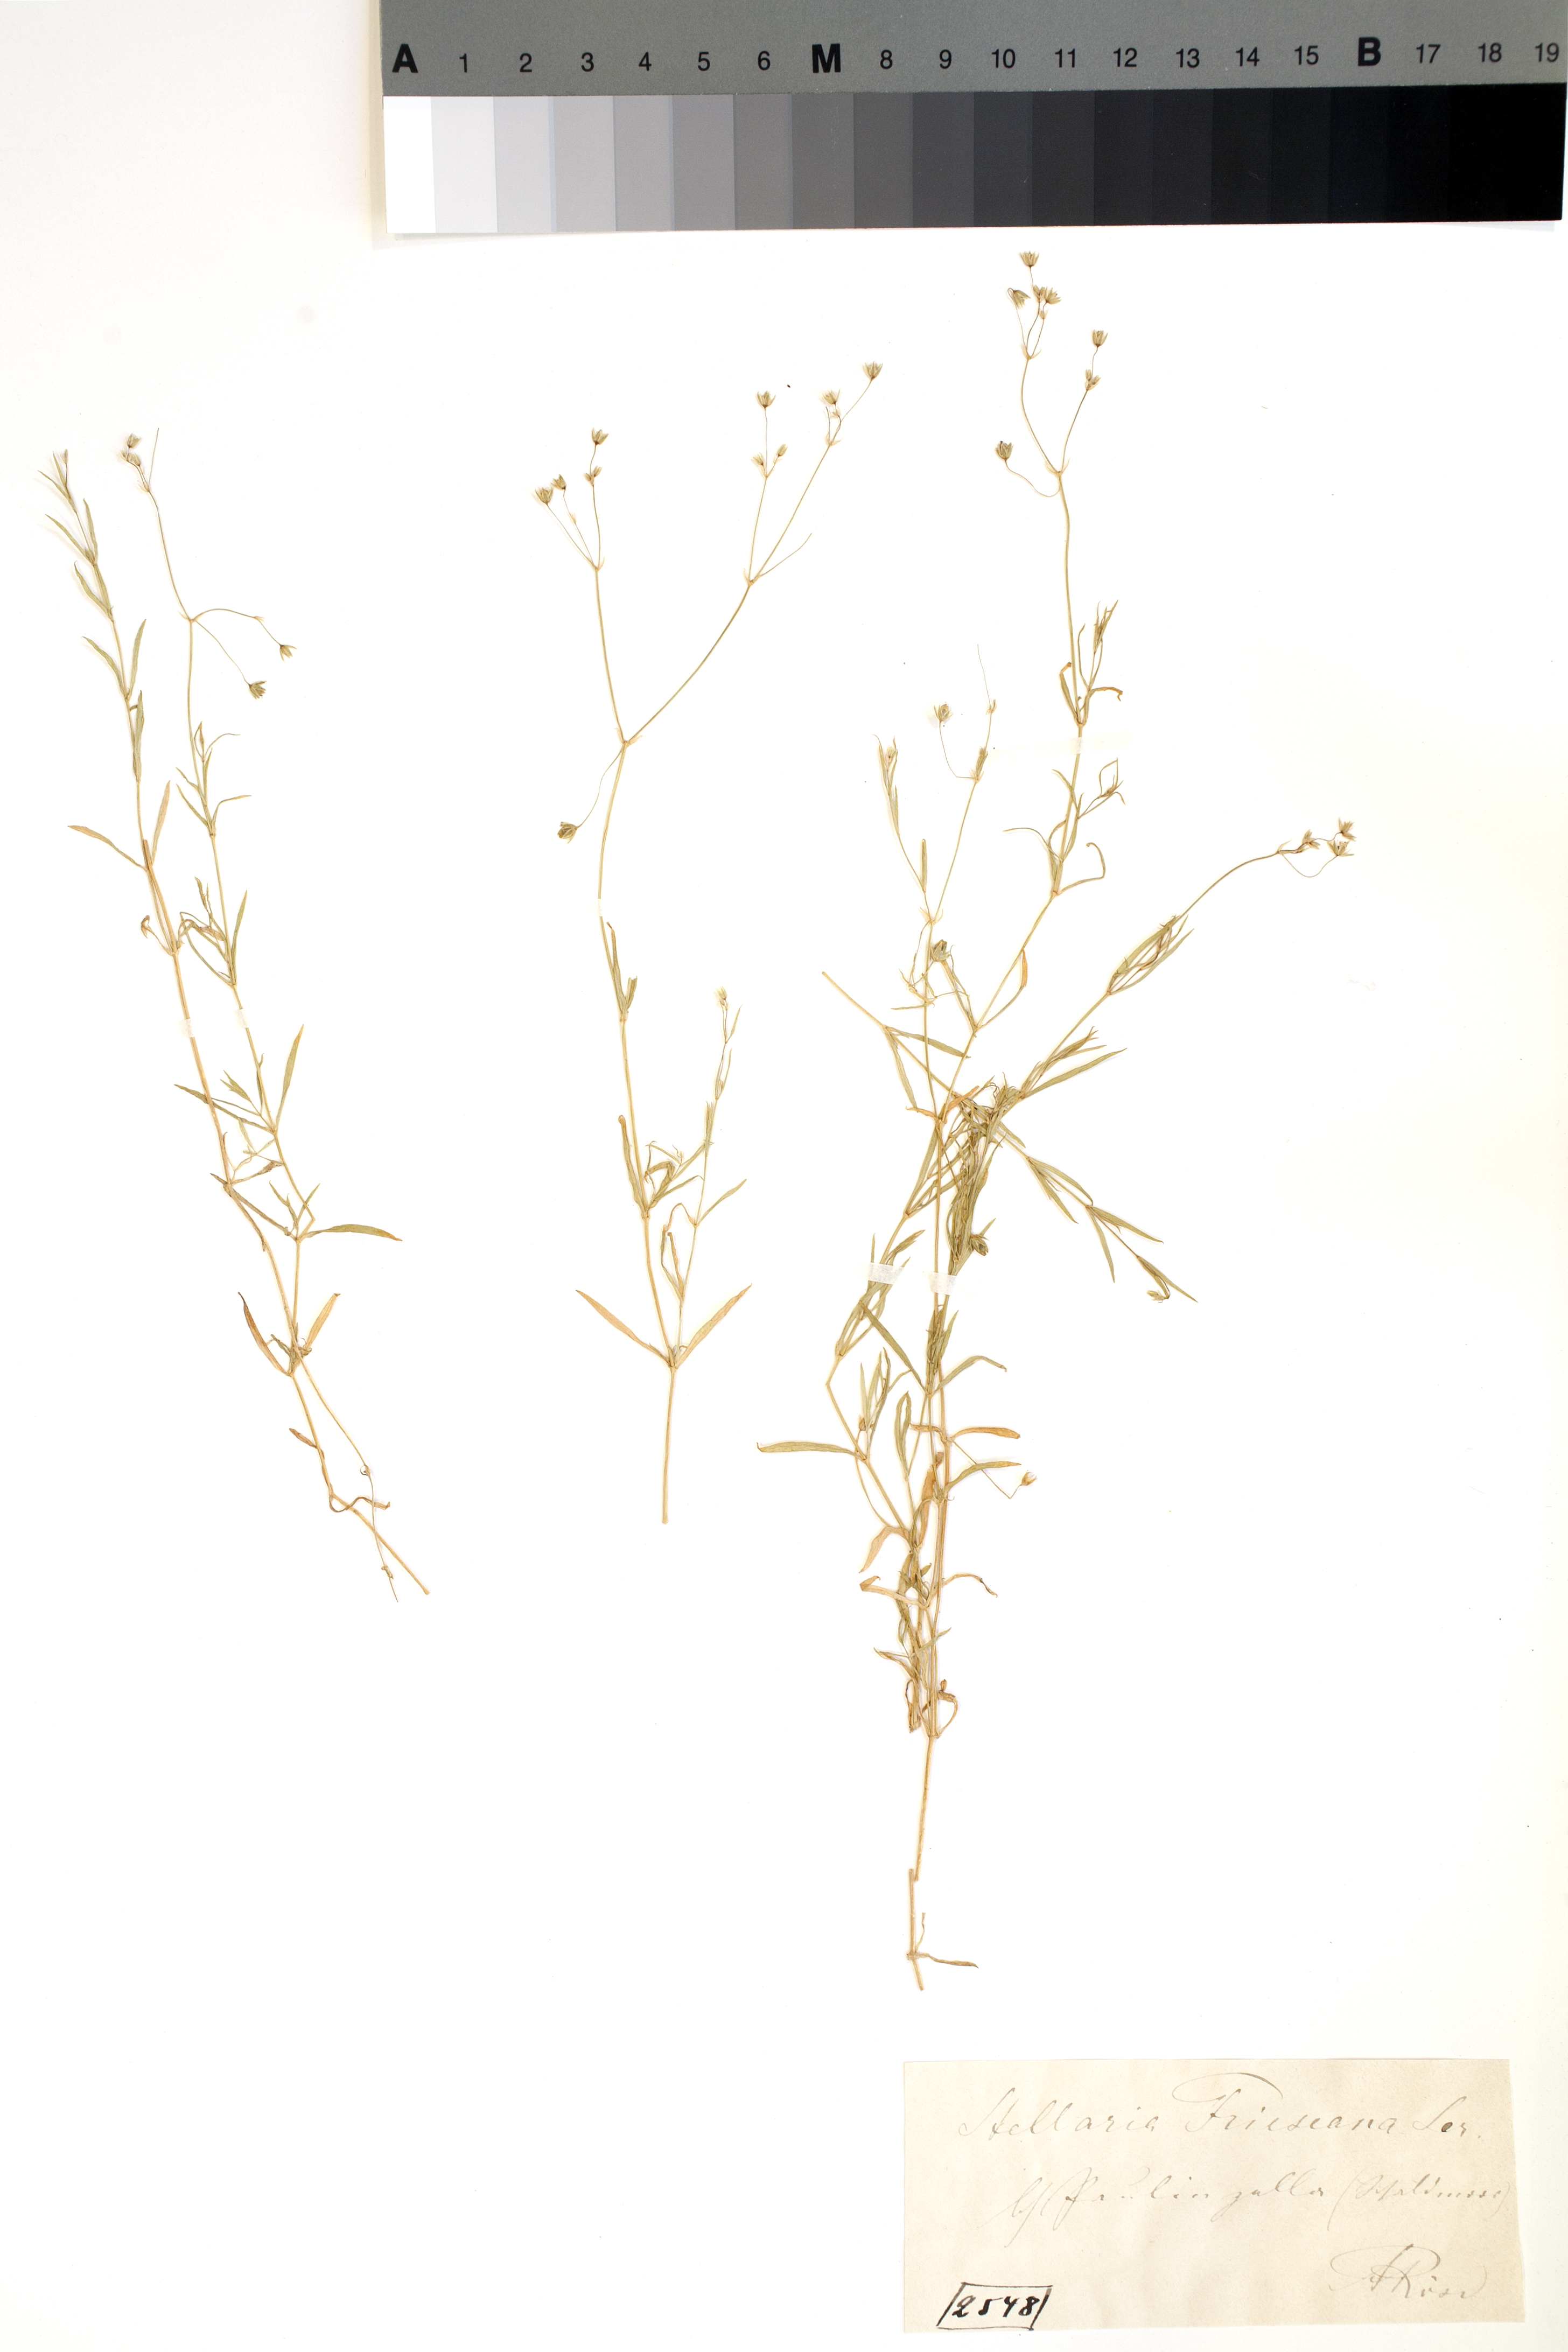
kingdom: Plantae
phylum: Tracheophyta
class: Magnoliopsida
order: Caryophyllales
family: Caryophyllaceae
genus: Stellaria
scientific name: Stellaria longifolia
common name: Long-leaved chickweed
